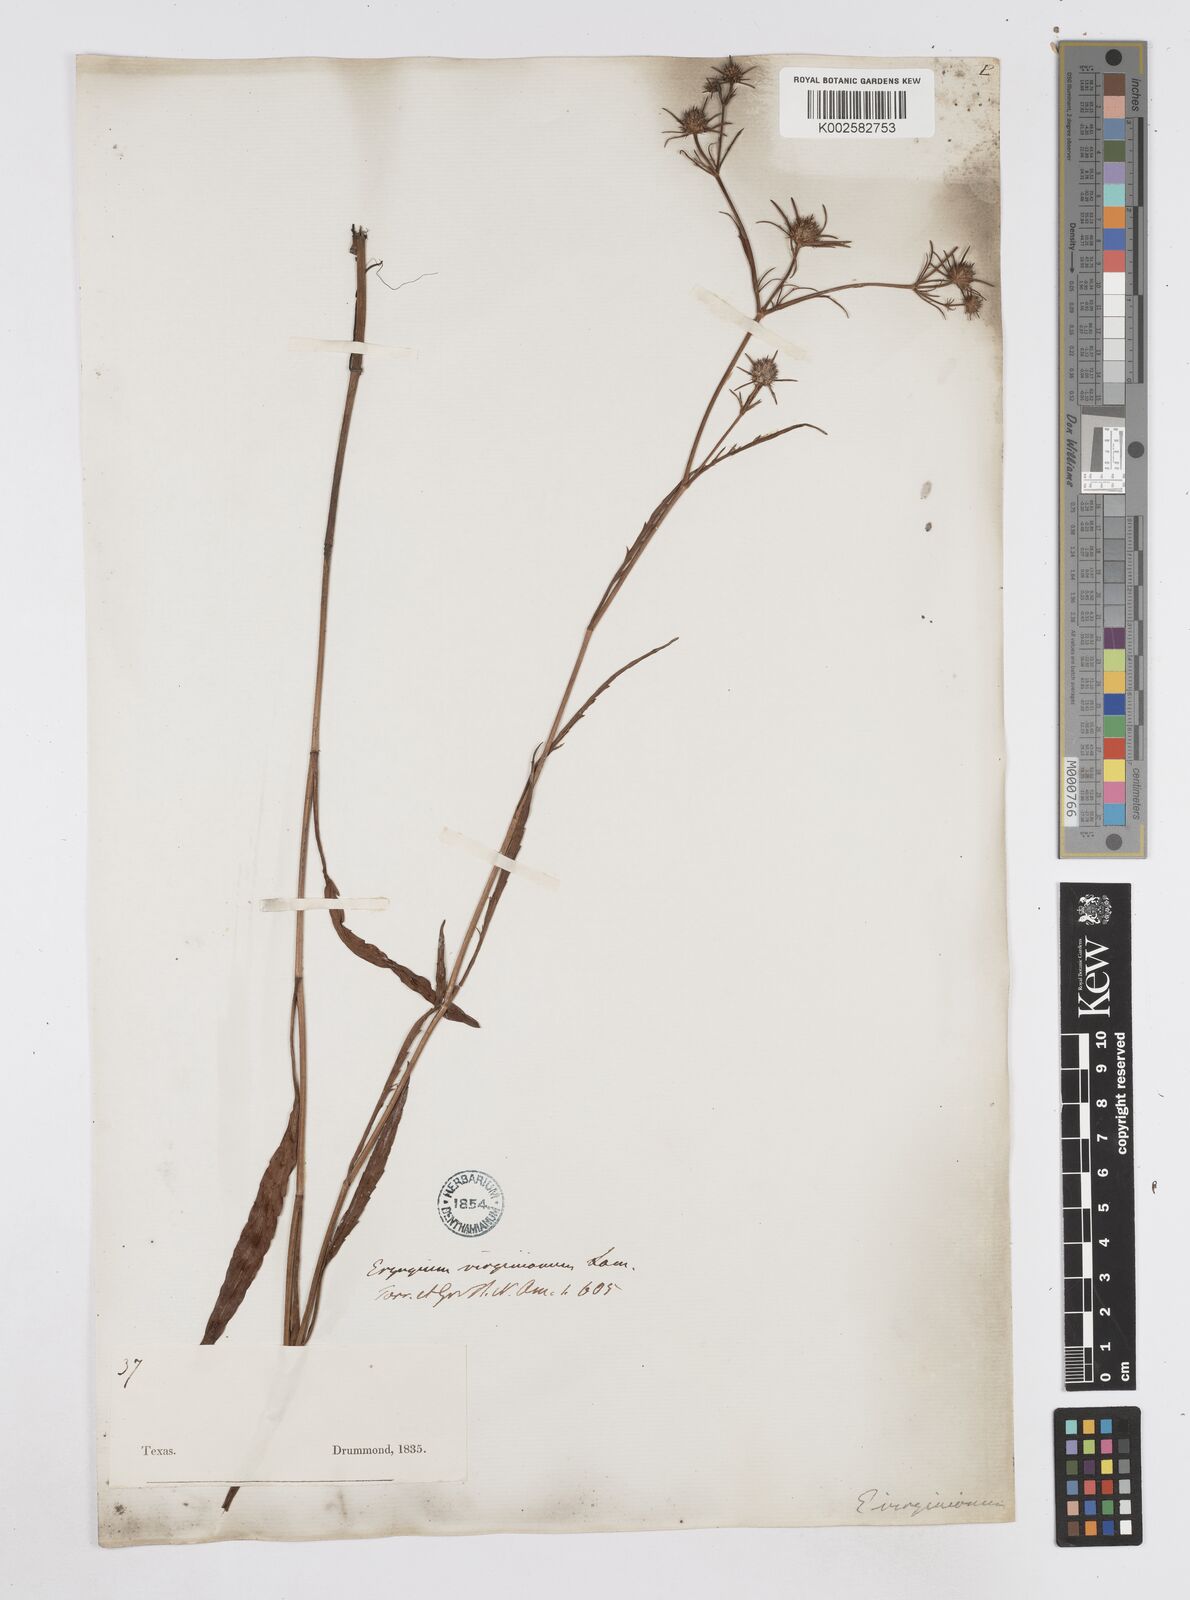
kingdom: Plantae
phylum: Tracheophyta
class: Magnoliopsida
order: Apiales
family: Apiaceae
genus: Eryngium
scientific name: Eryngium integrifolium
